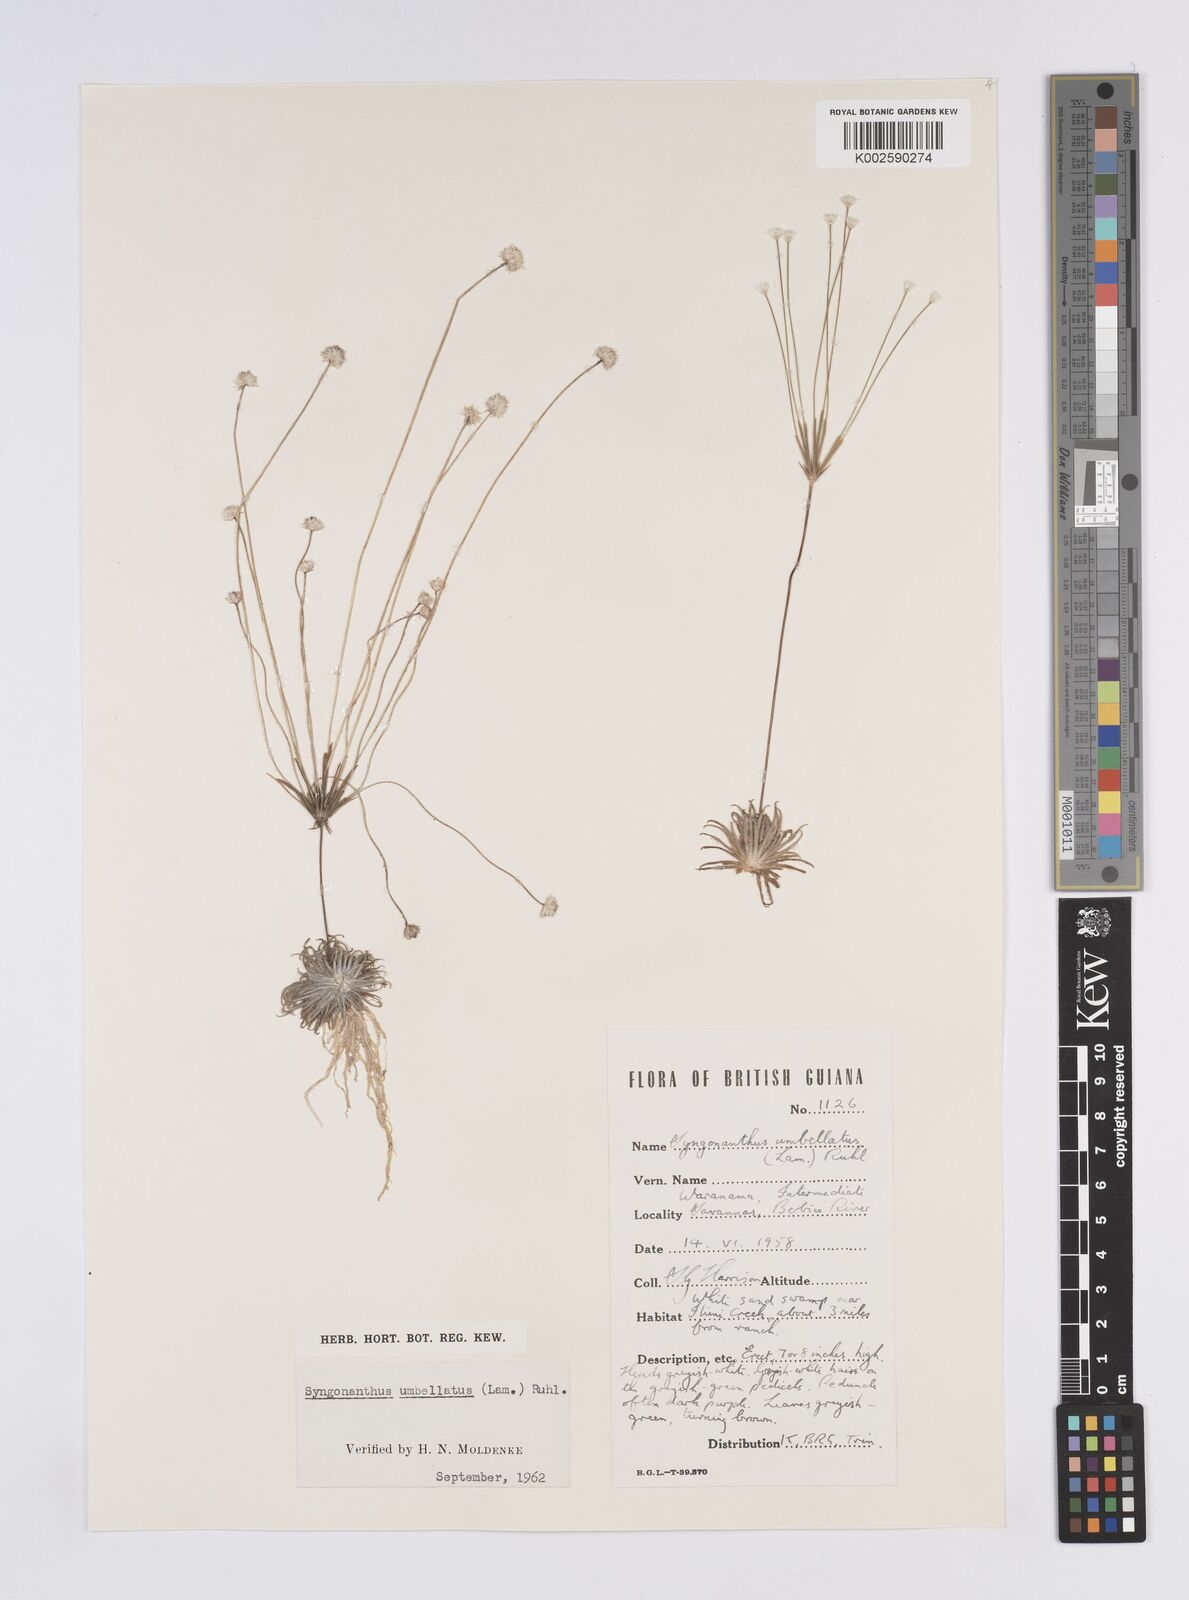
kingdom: Plantae
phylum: Tracheophyta
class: Liliopsida
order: Poales
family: Eriocaulaceae
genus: Syngonanthus
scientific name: Syngonanthus umbellatus
